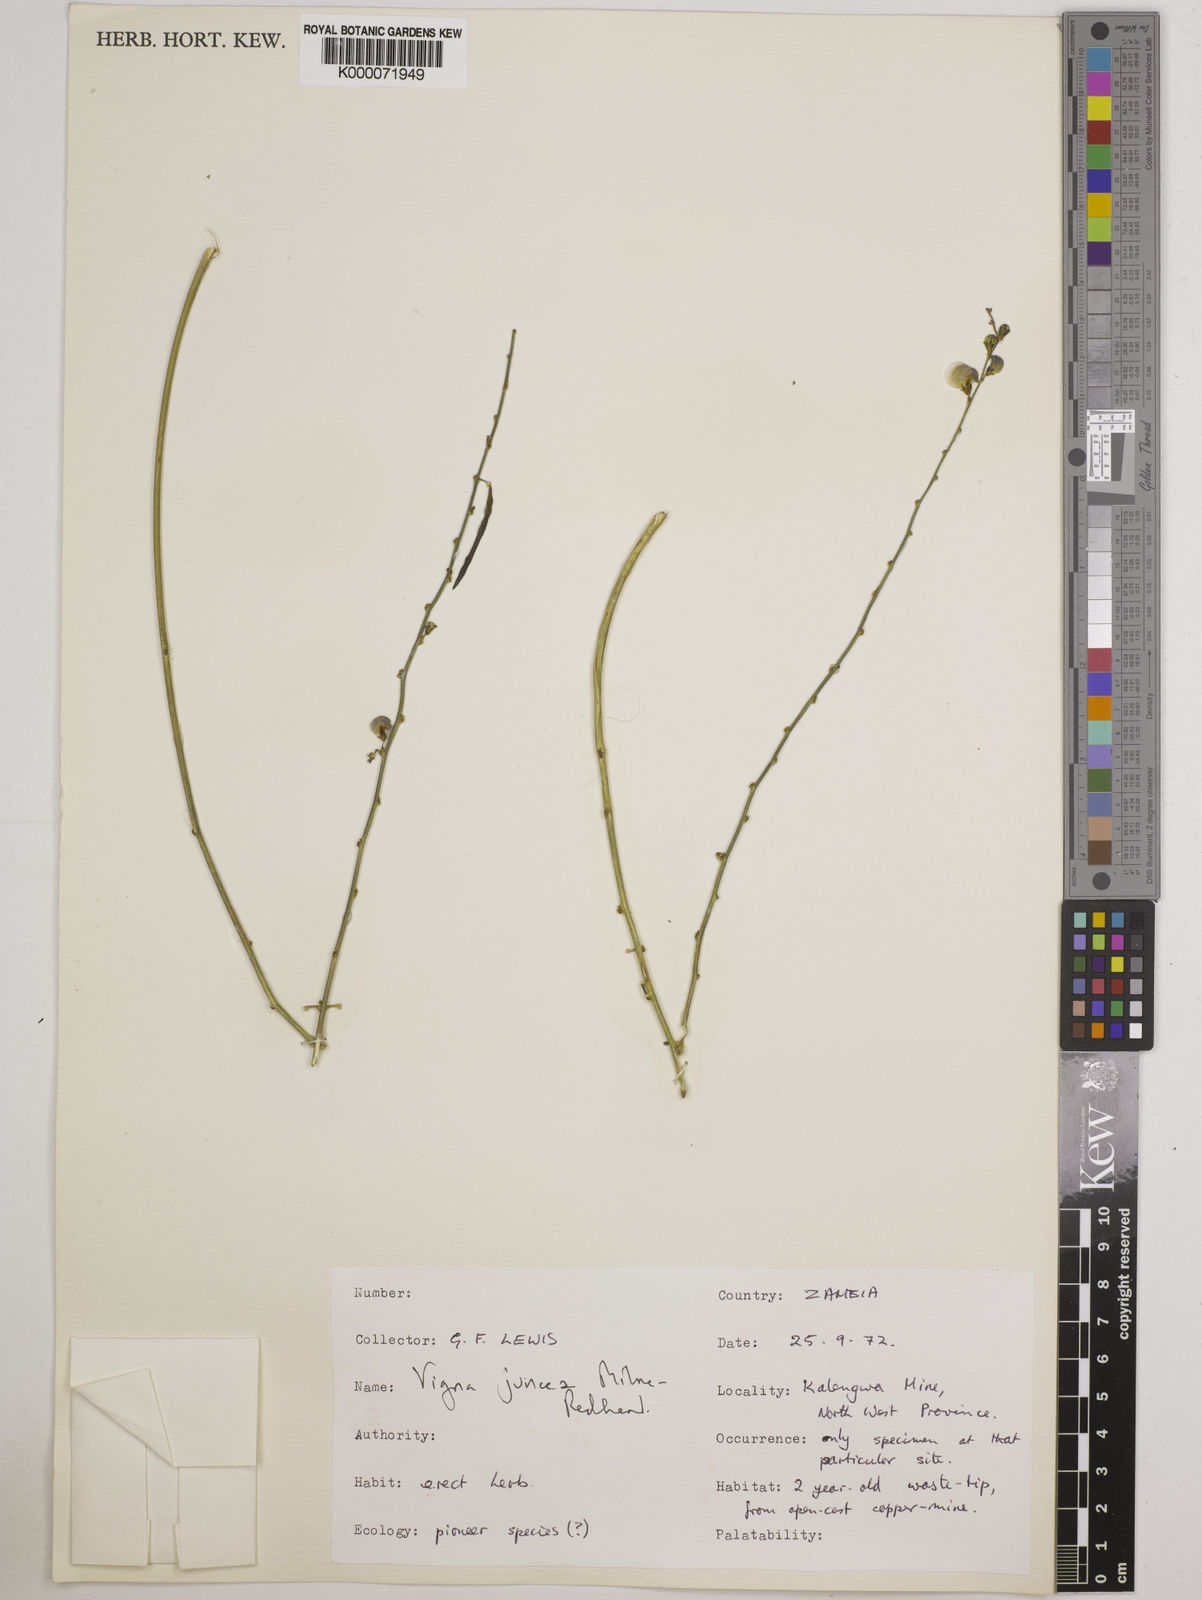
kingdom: Plantae
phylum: Tracheophyta
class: Magnoliopsida
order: Fabales
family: Fabaceae
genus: Vigna
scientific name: Vigna juncea
